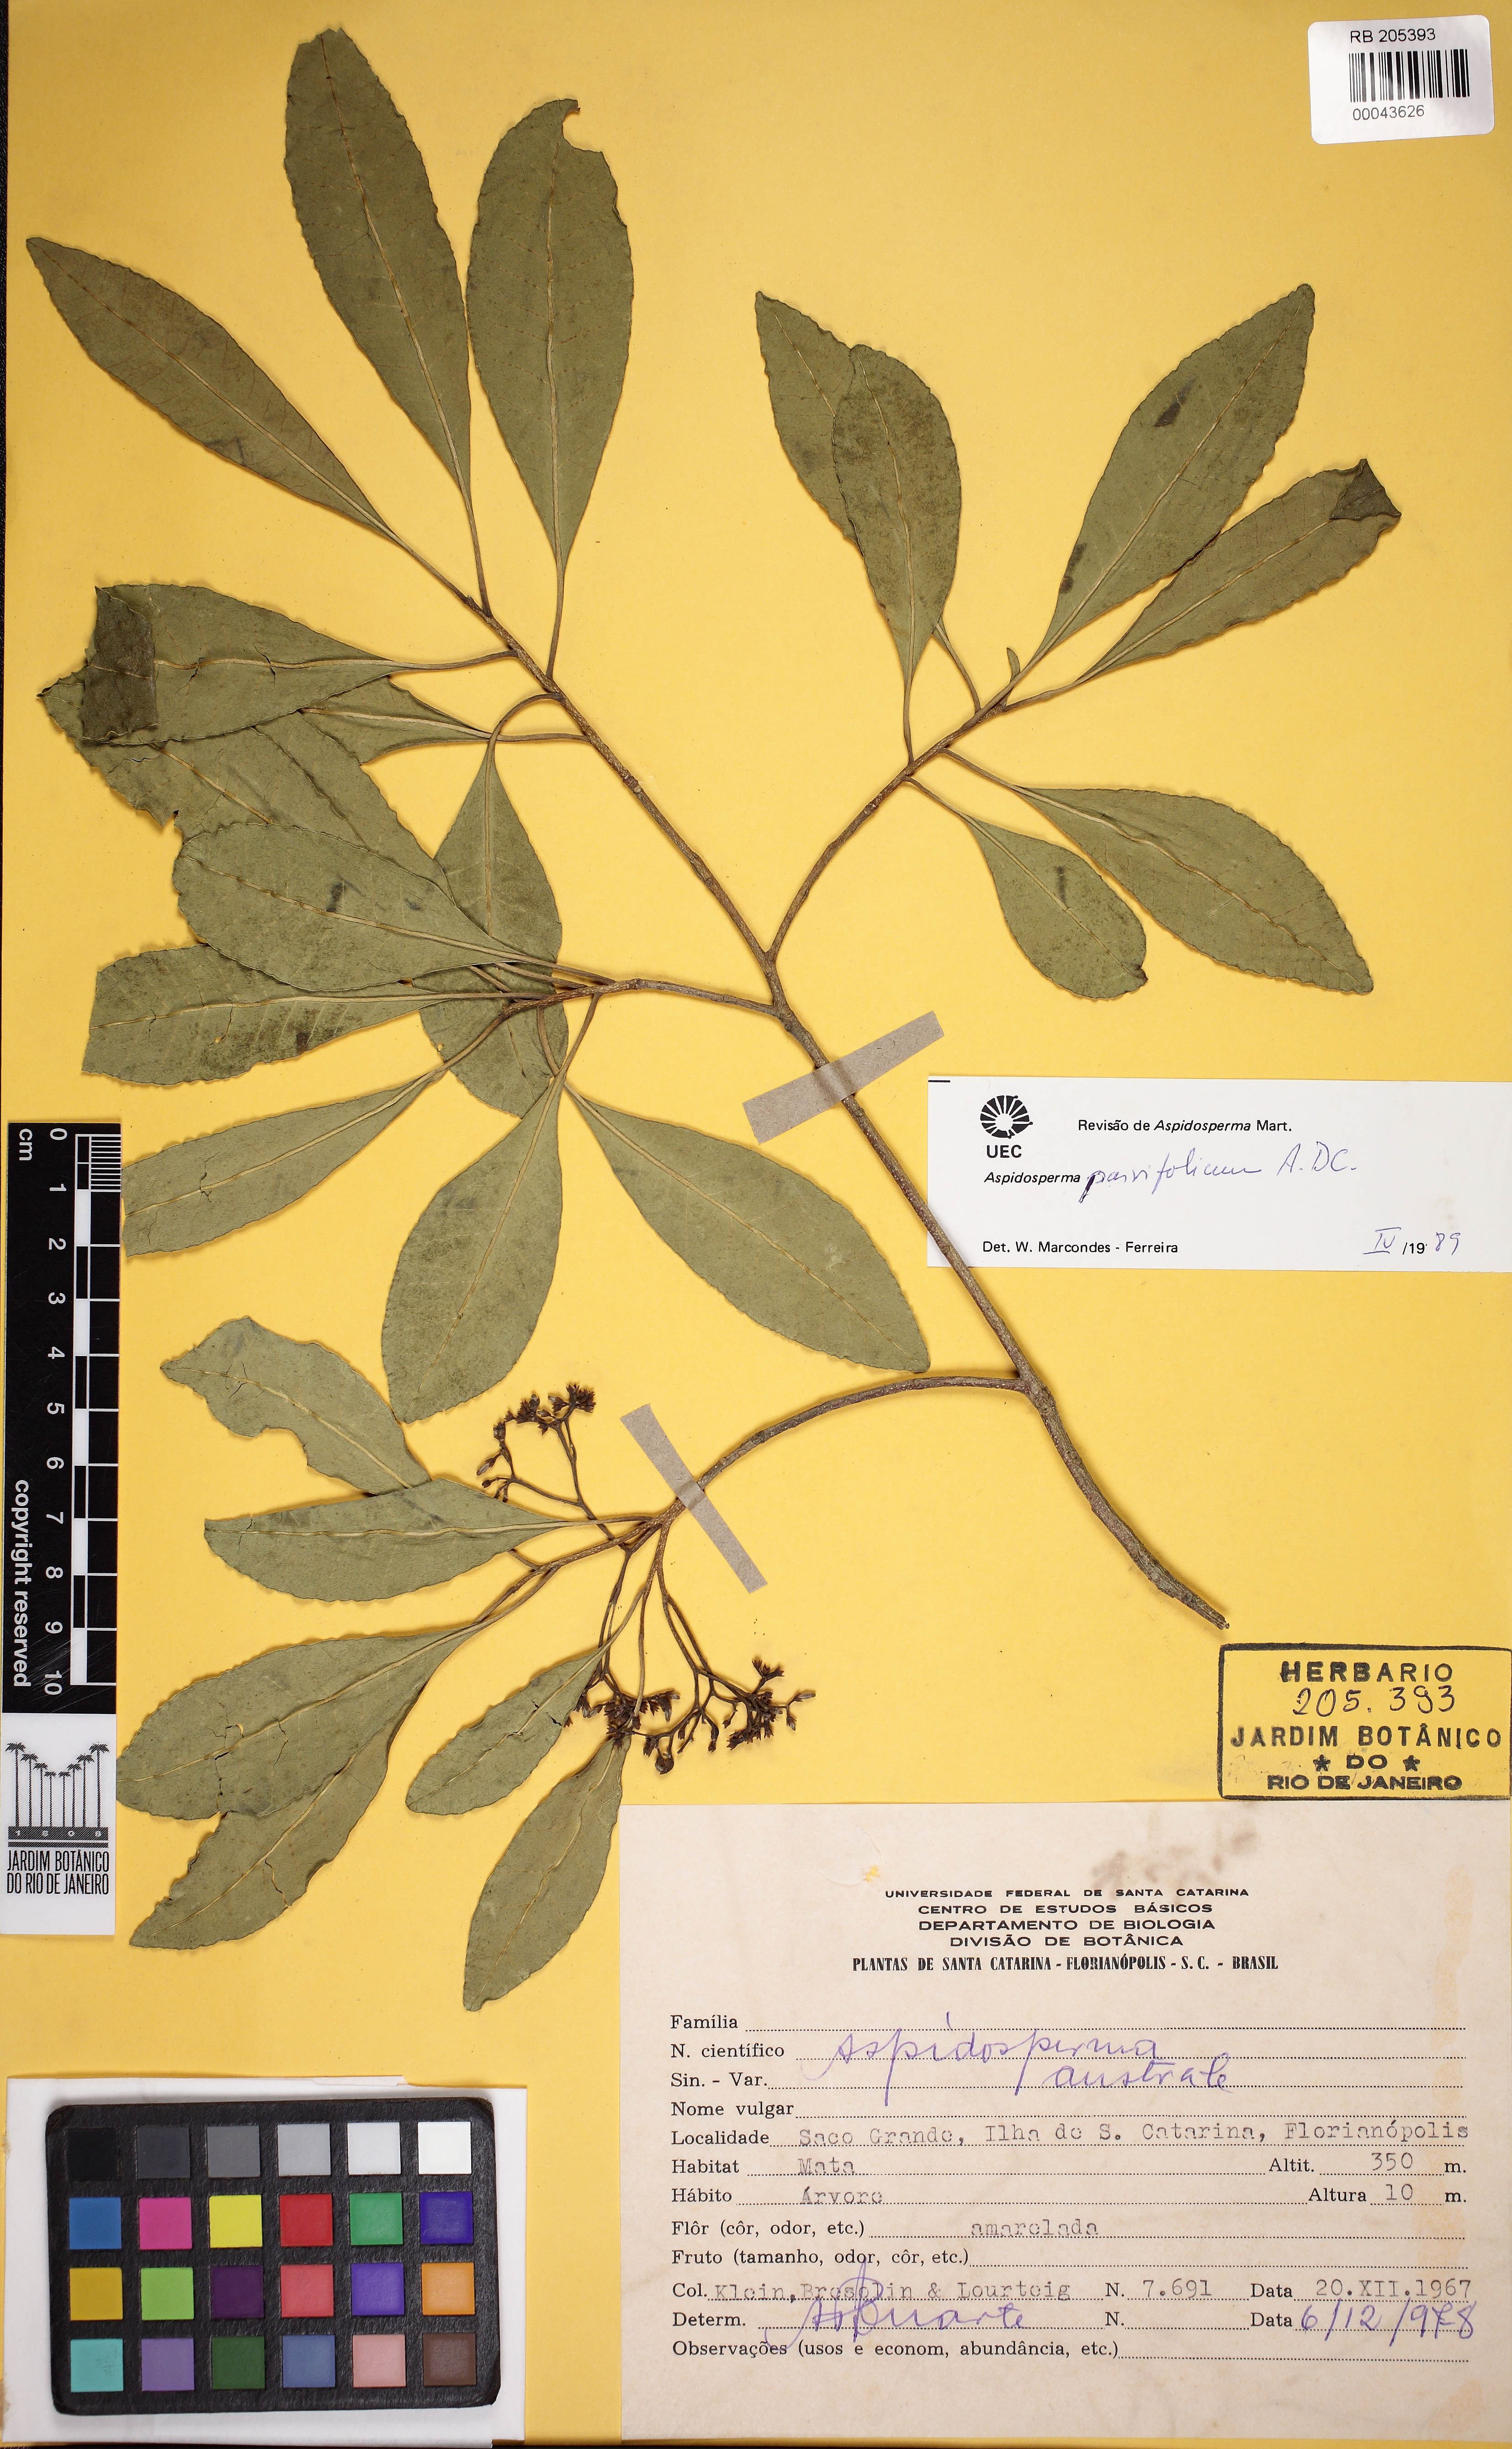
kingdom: Plantae
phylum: Tracheophyta
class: Magnoliopsida
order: Gentianales
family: Apocynaceae
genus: Aspidosperma
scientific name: Aspidosperma australe
